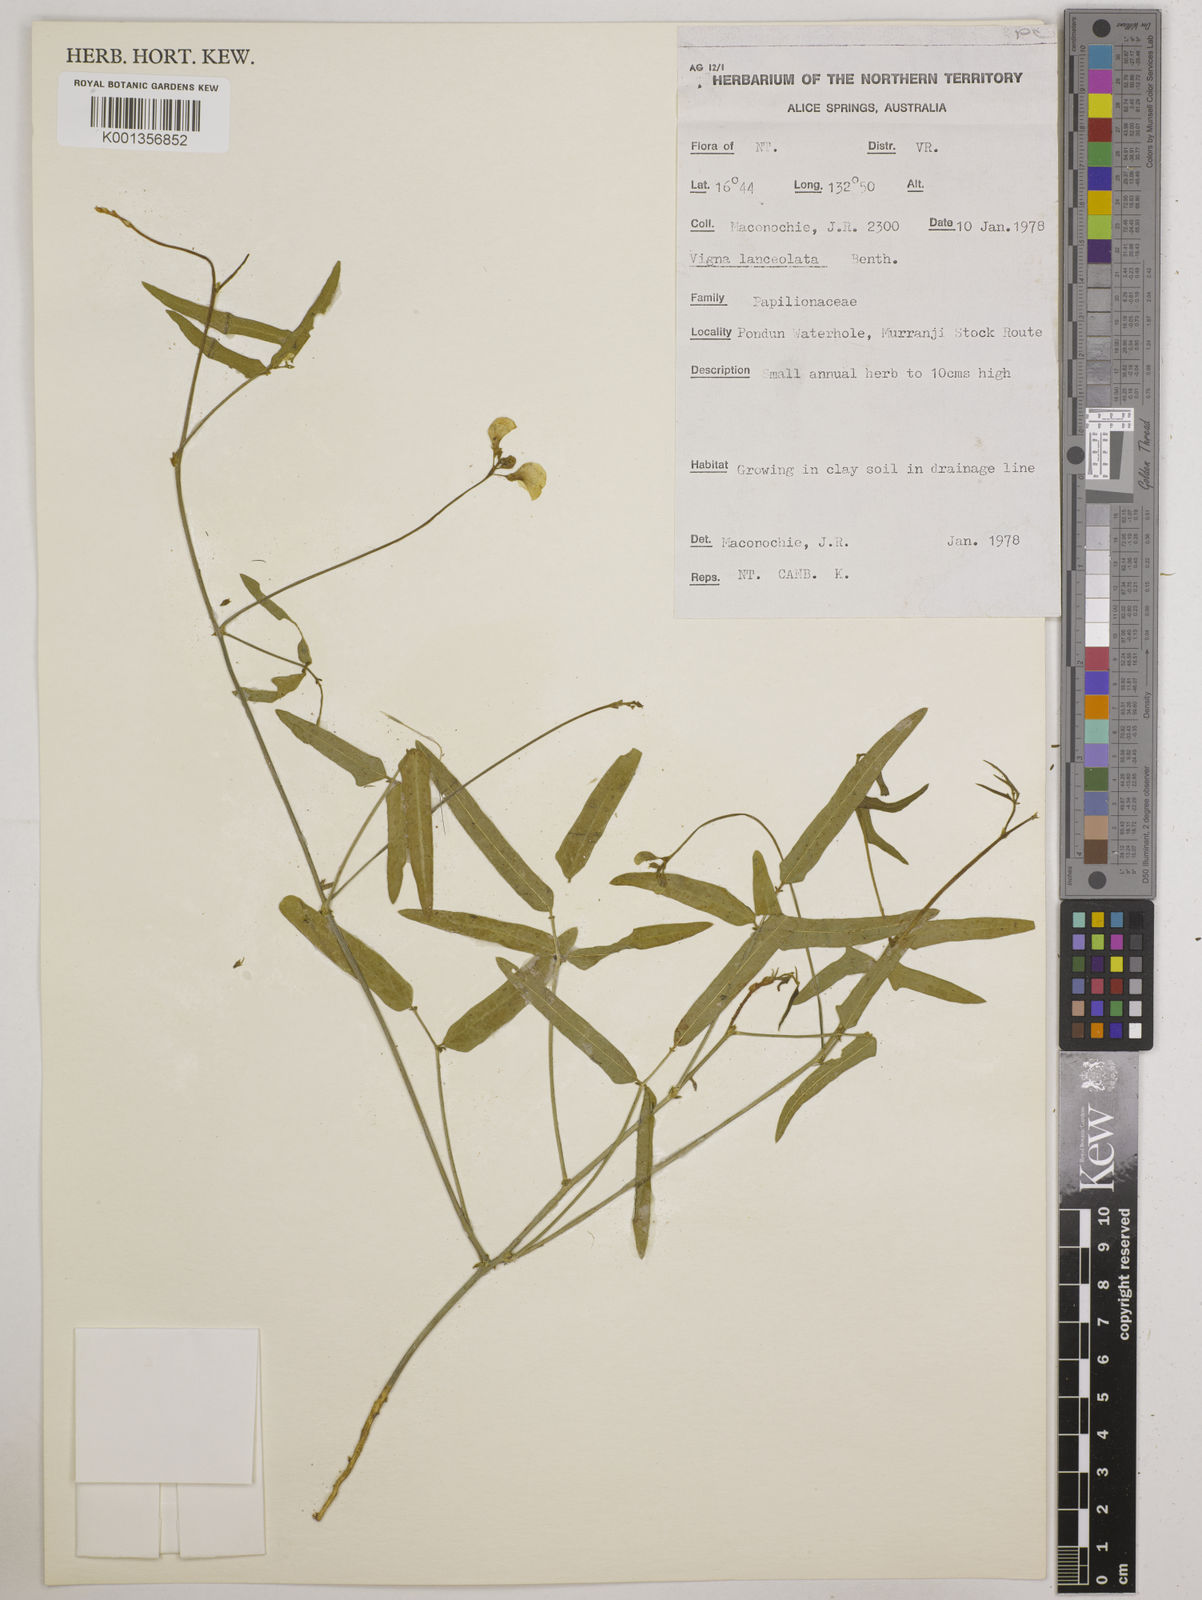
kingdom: Plantae
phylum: Tracheophyta
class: Magnoliopsida
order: Fabales
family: Fabaceae
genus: Vigna
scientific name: Vigna lanceolata
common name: Maloga-bean
